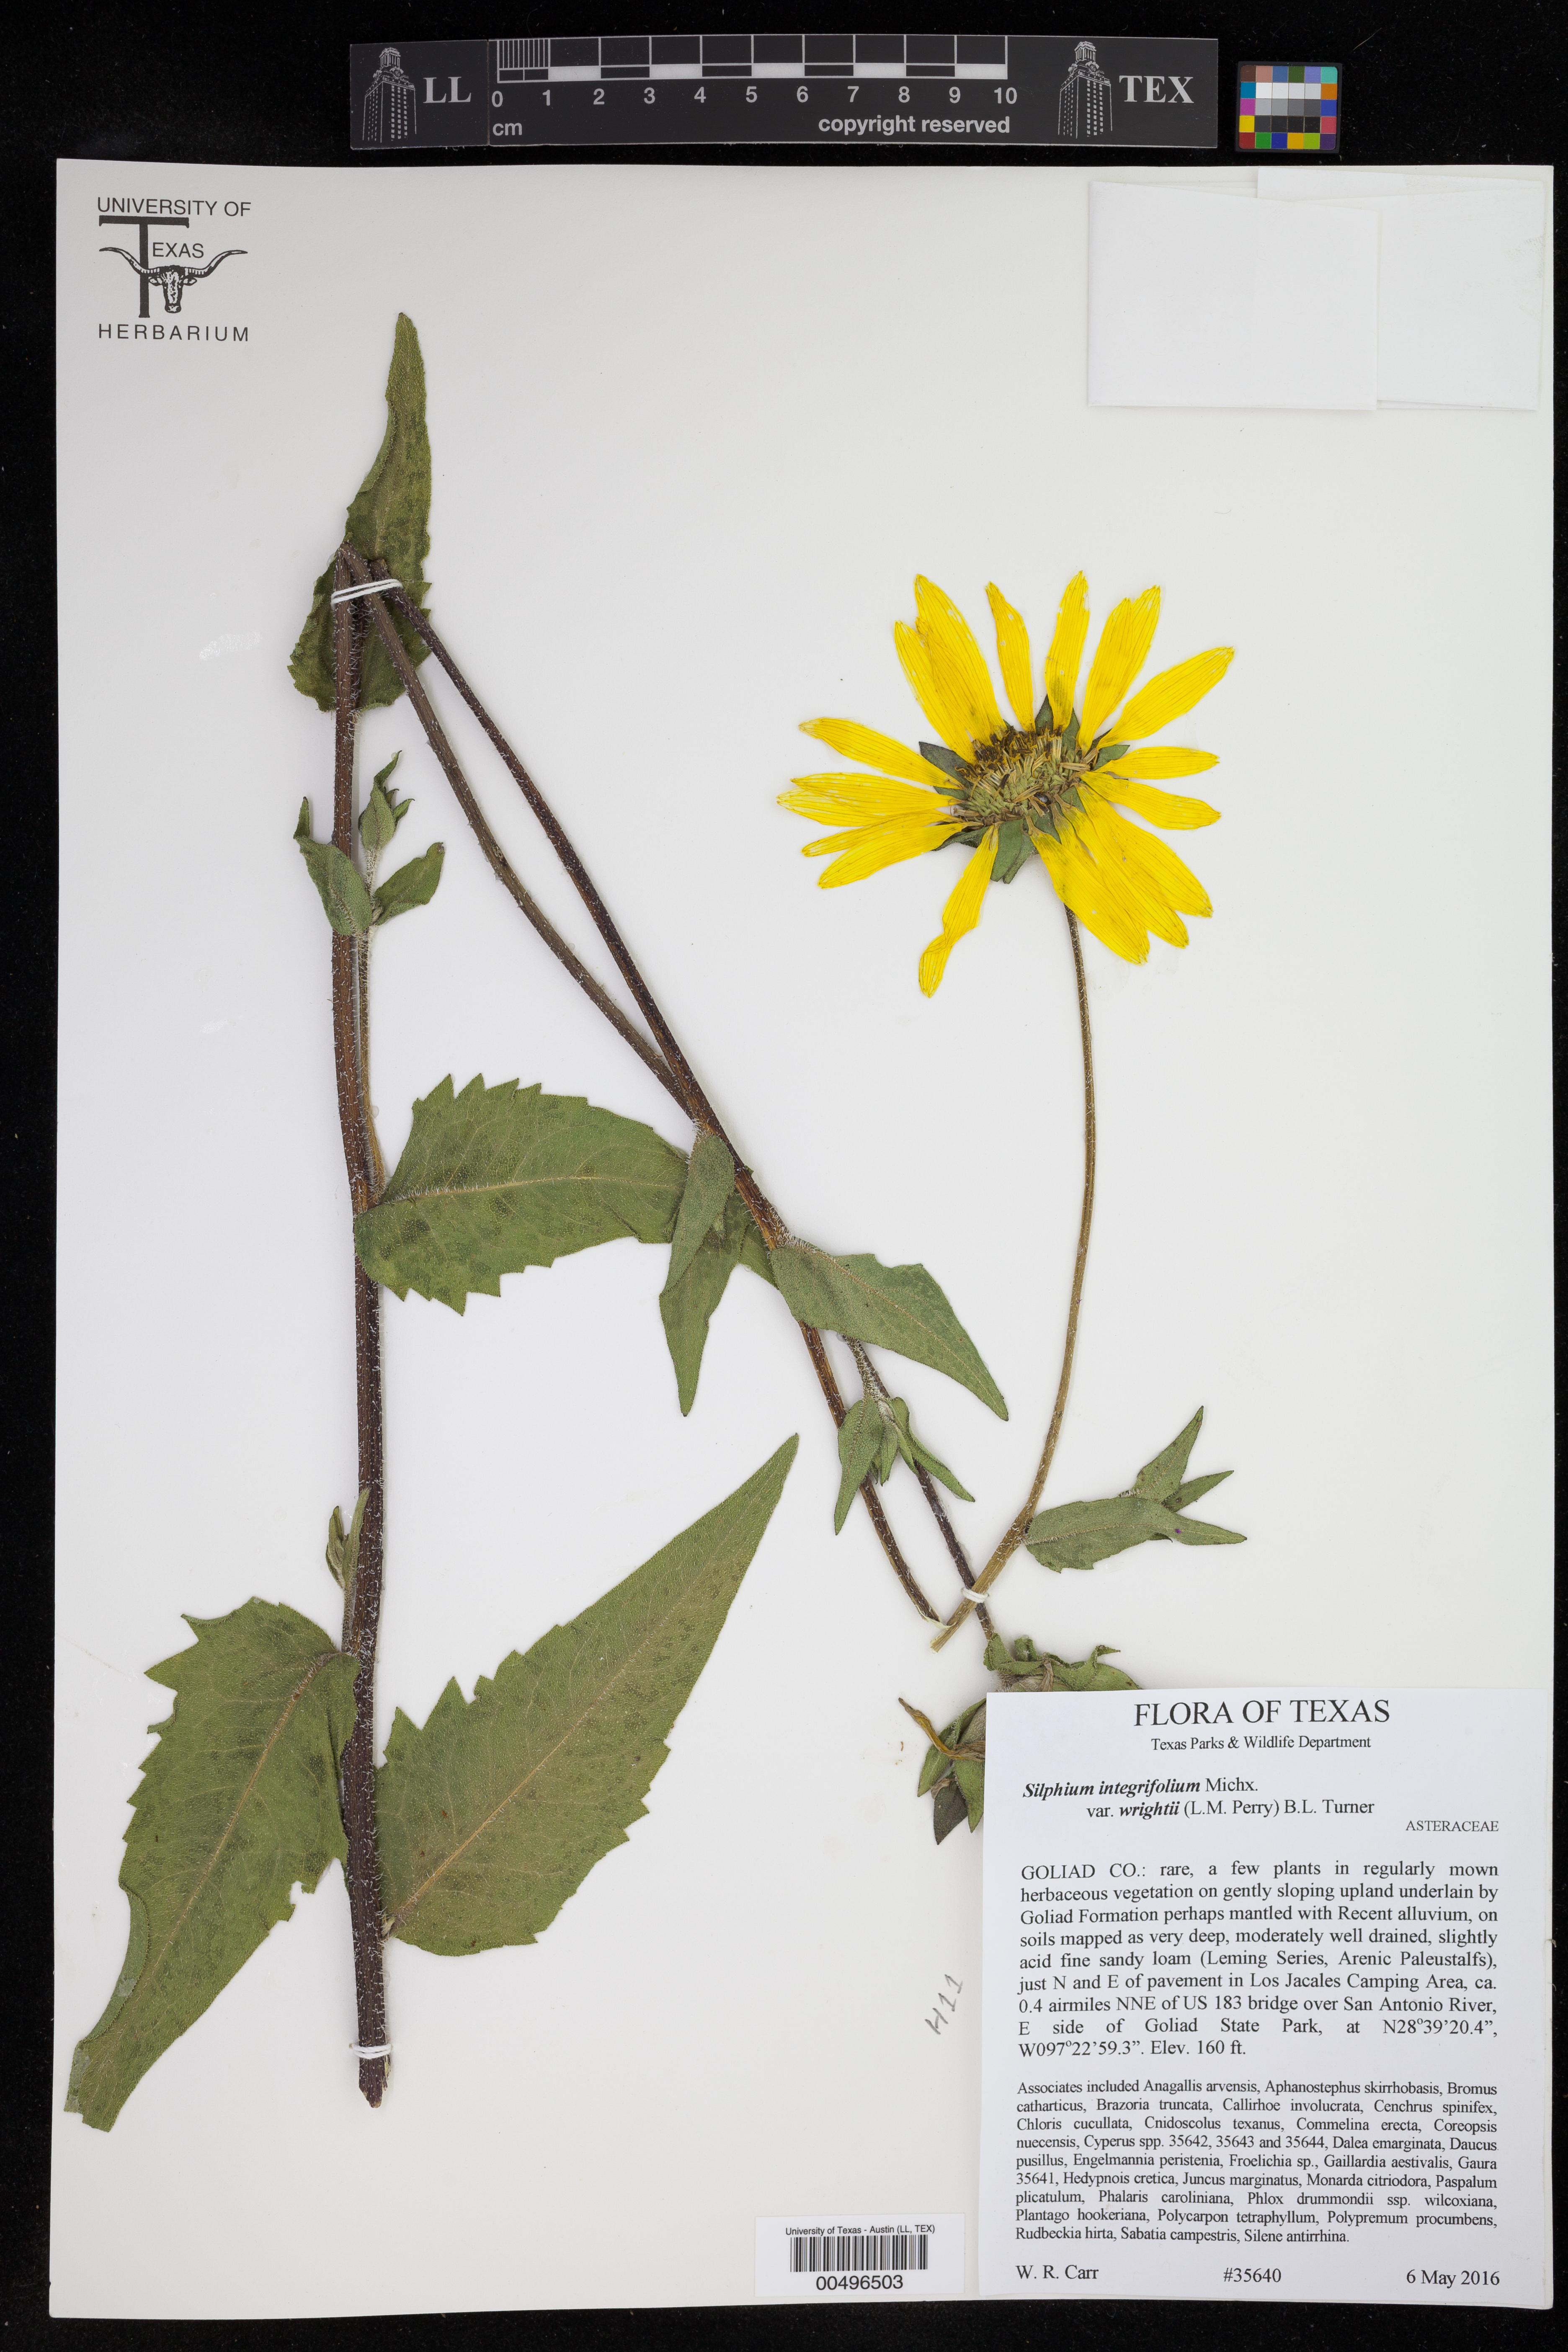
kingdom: Plantae
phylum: Tracheophyta
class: Magnoliopsida
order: Asterales
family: Asteraceae
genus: Silphium
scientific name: Silphium radula
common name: Roughleaf rosinweed
